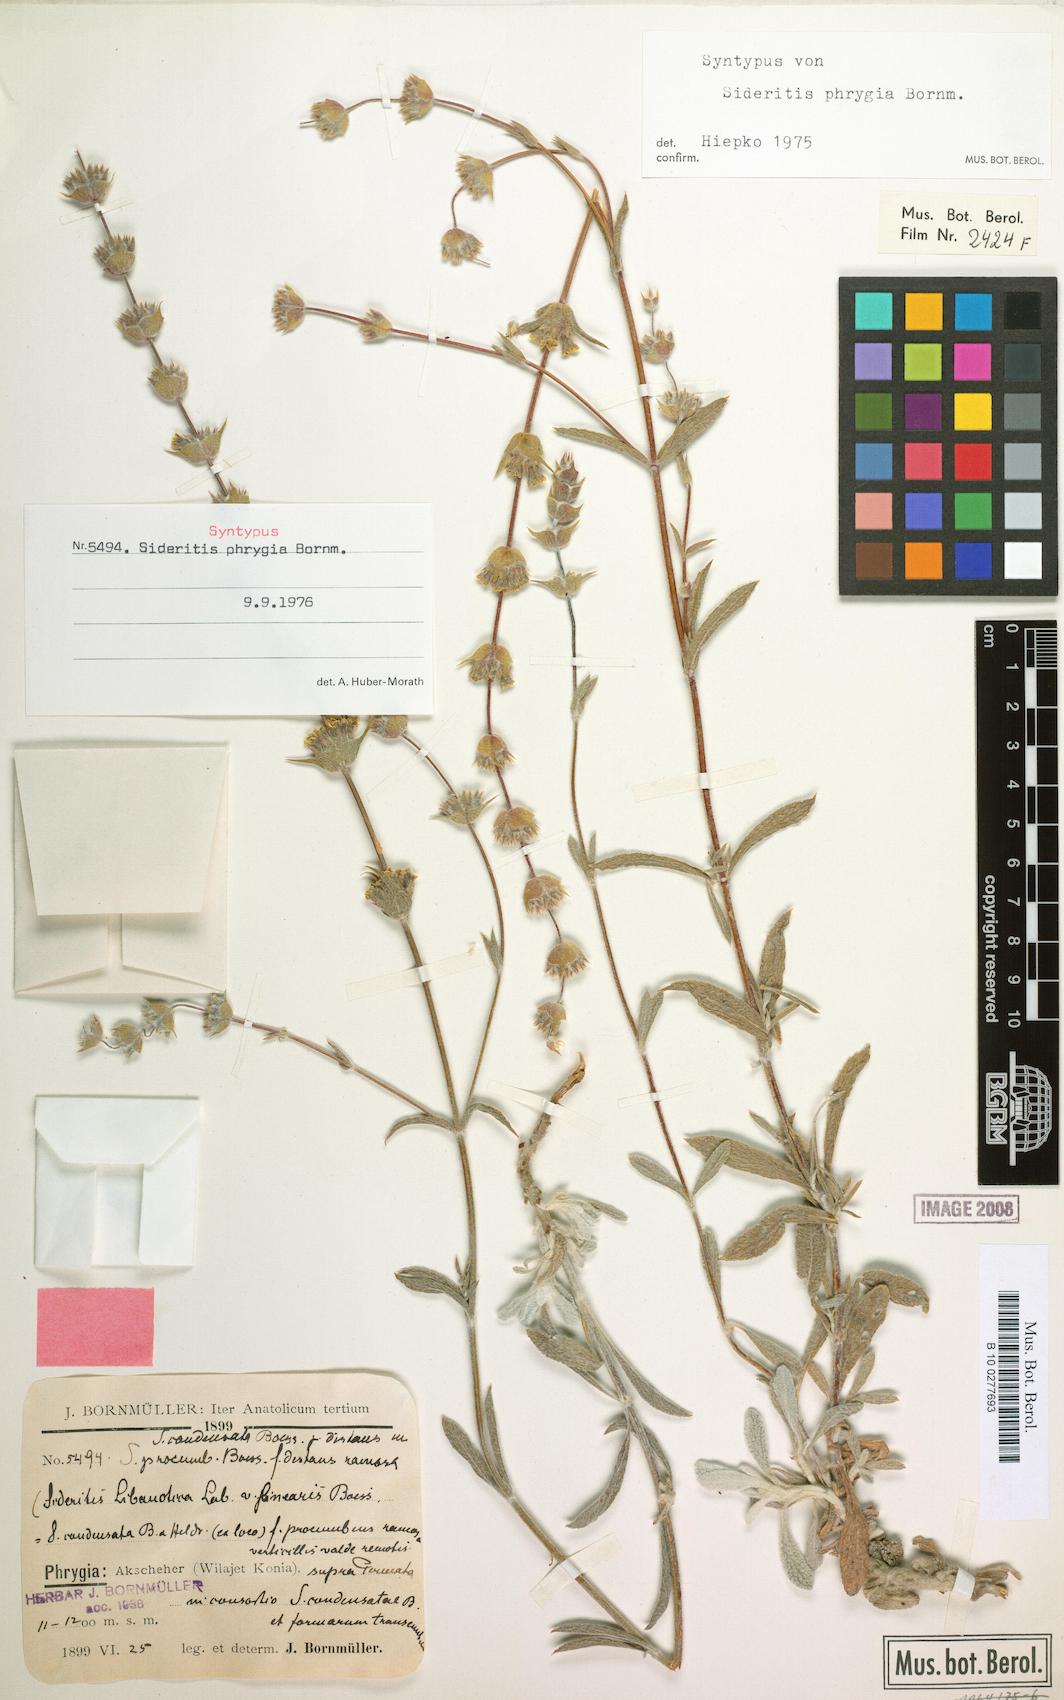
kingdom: Plantae
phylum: Tracheophyta
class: Magnoliopsida
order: Lamiales
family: Lamiaceae
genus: Sideritis
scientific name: Sideritis phrygia
